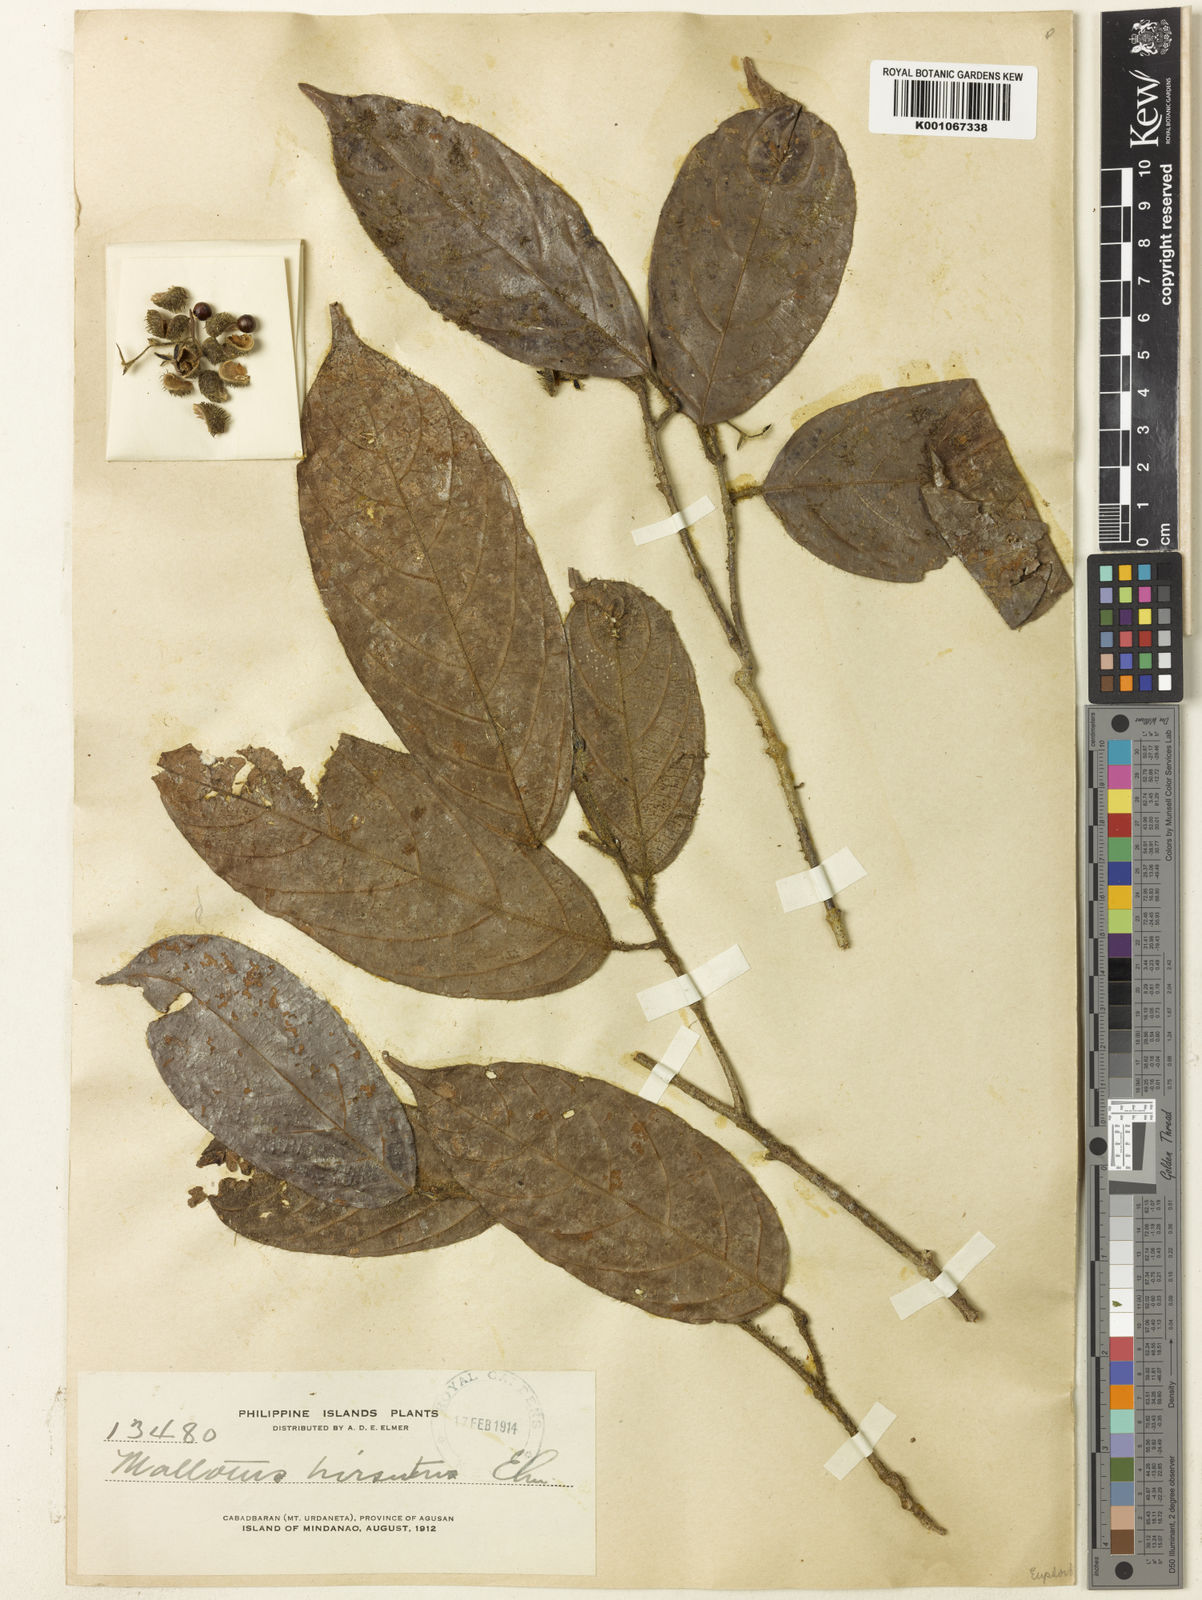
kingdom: Plantae
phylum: Tracheophyta
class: Magnoliopsida
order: Malpighiales
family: Euphorbiaceae
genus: Hancea
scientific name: Hancea hirsuta
